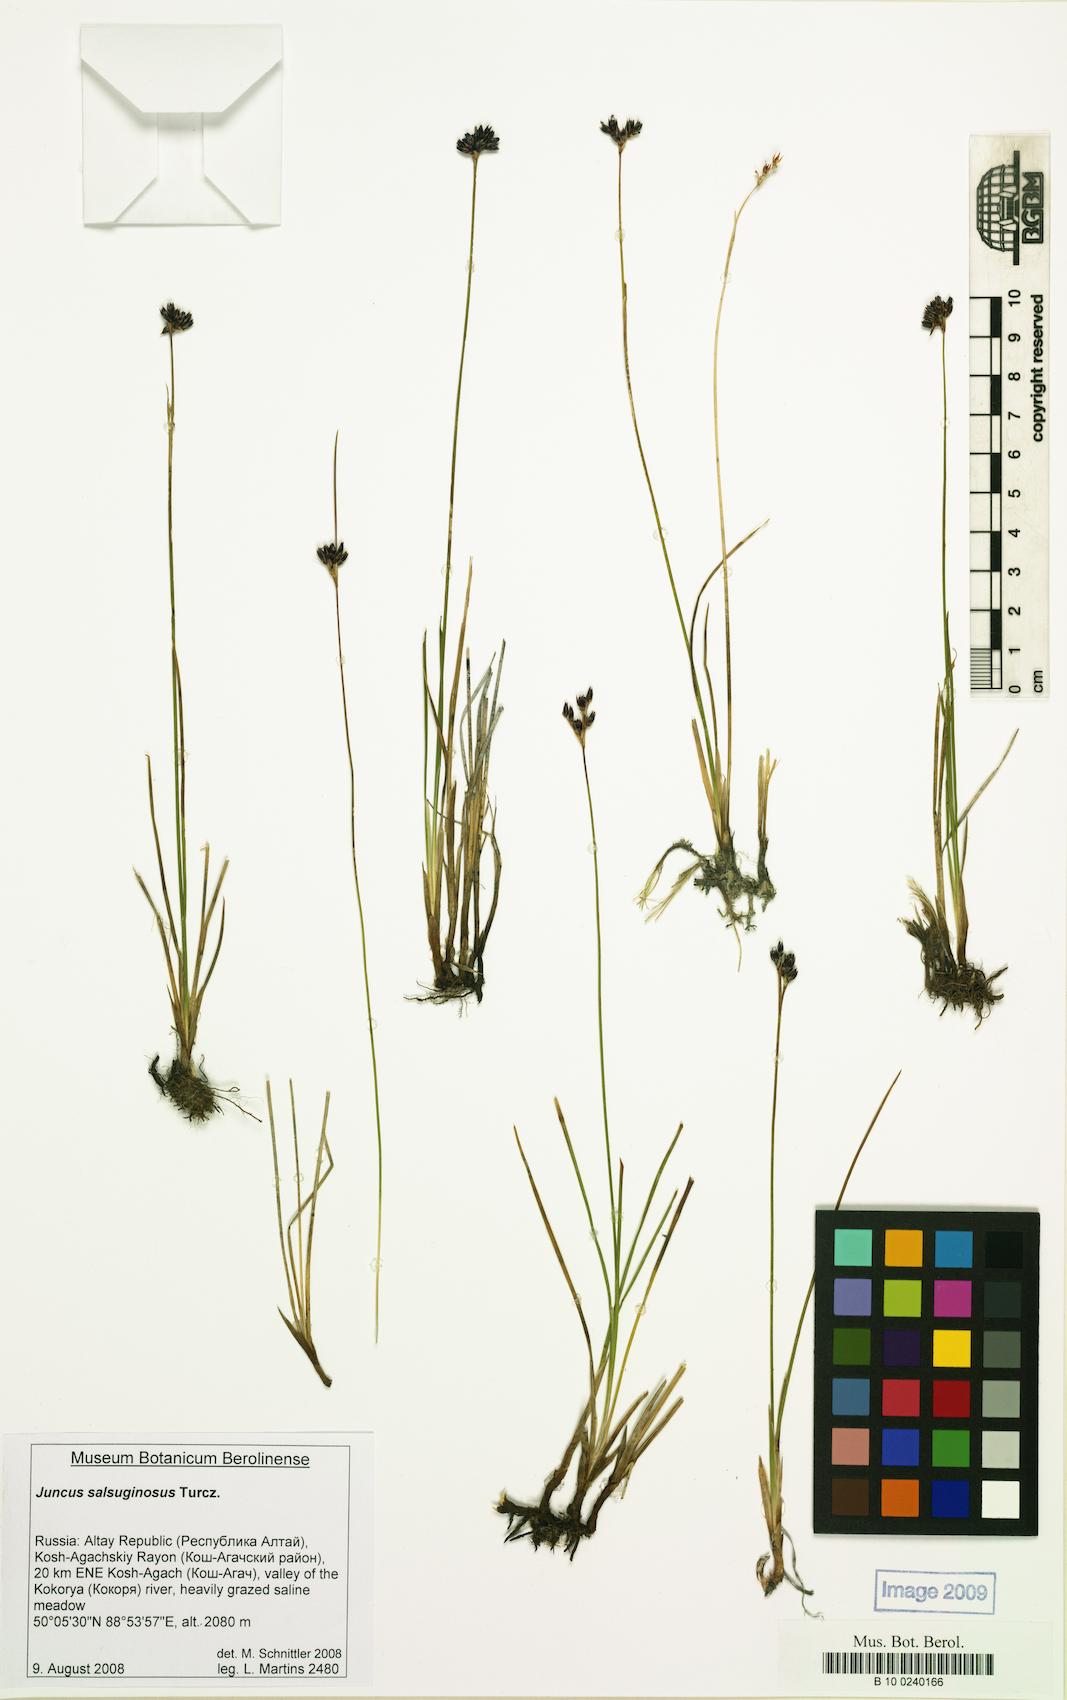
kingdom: Plantae
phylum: Tracheophyta
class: Liliopsida
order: Poales
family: Juncaceae
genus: Juncus
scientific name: Juncus salsuginosus
